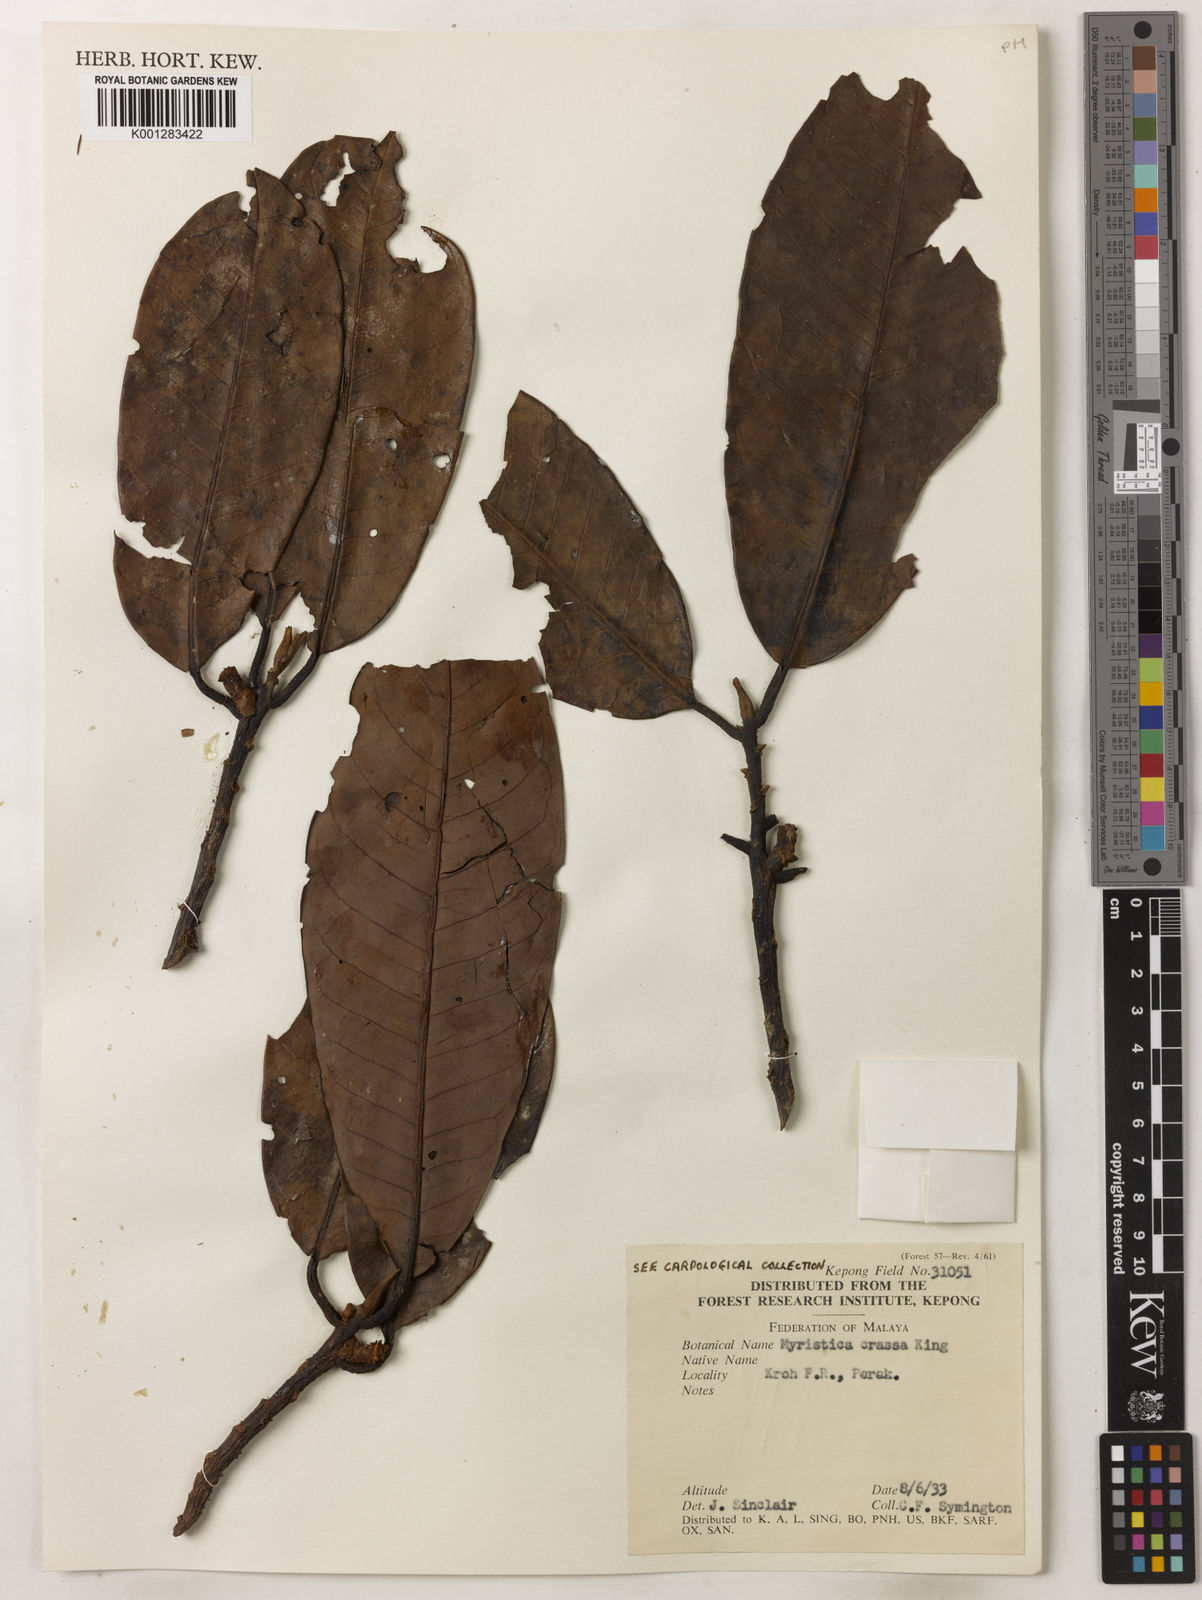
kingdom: Plantae
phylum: Tracheophyta
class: Magnoliopsida
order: Magnoliales
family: Myristicaceae
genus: Myristica
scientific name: Myristica crassa
